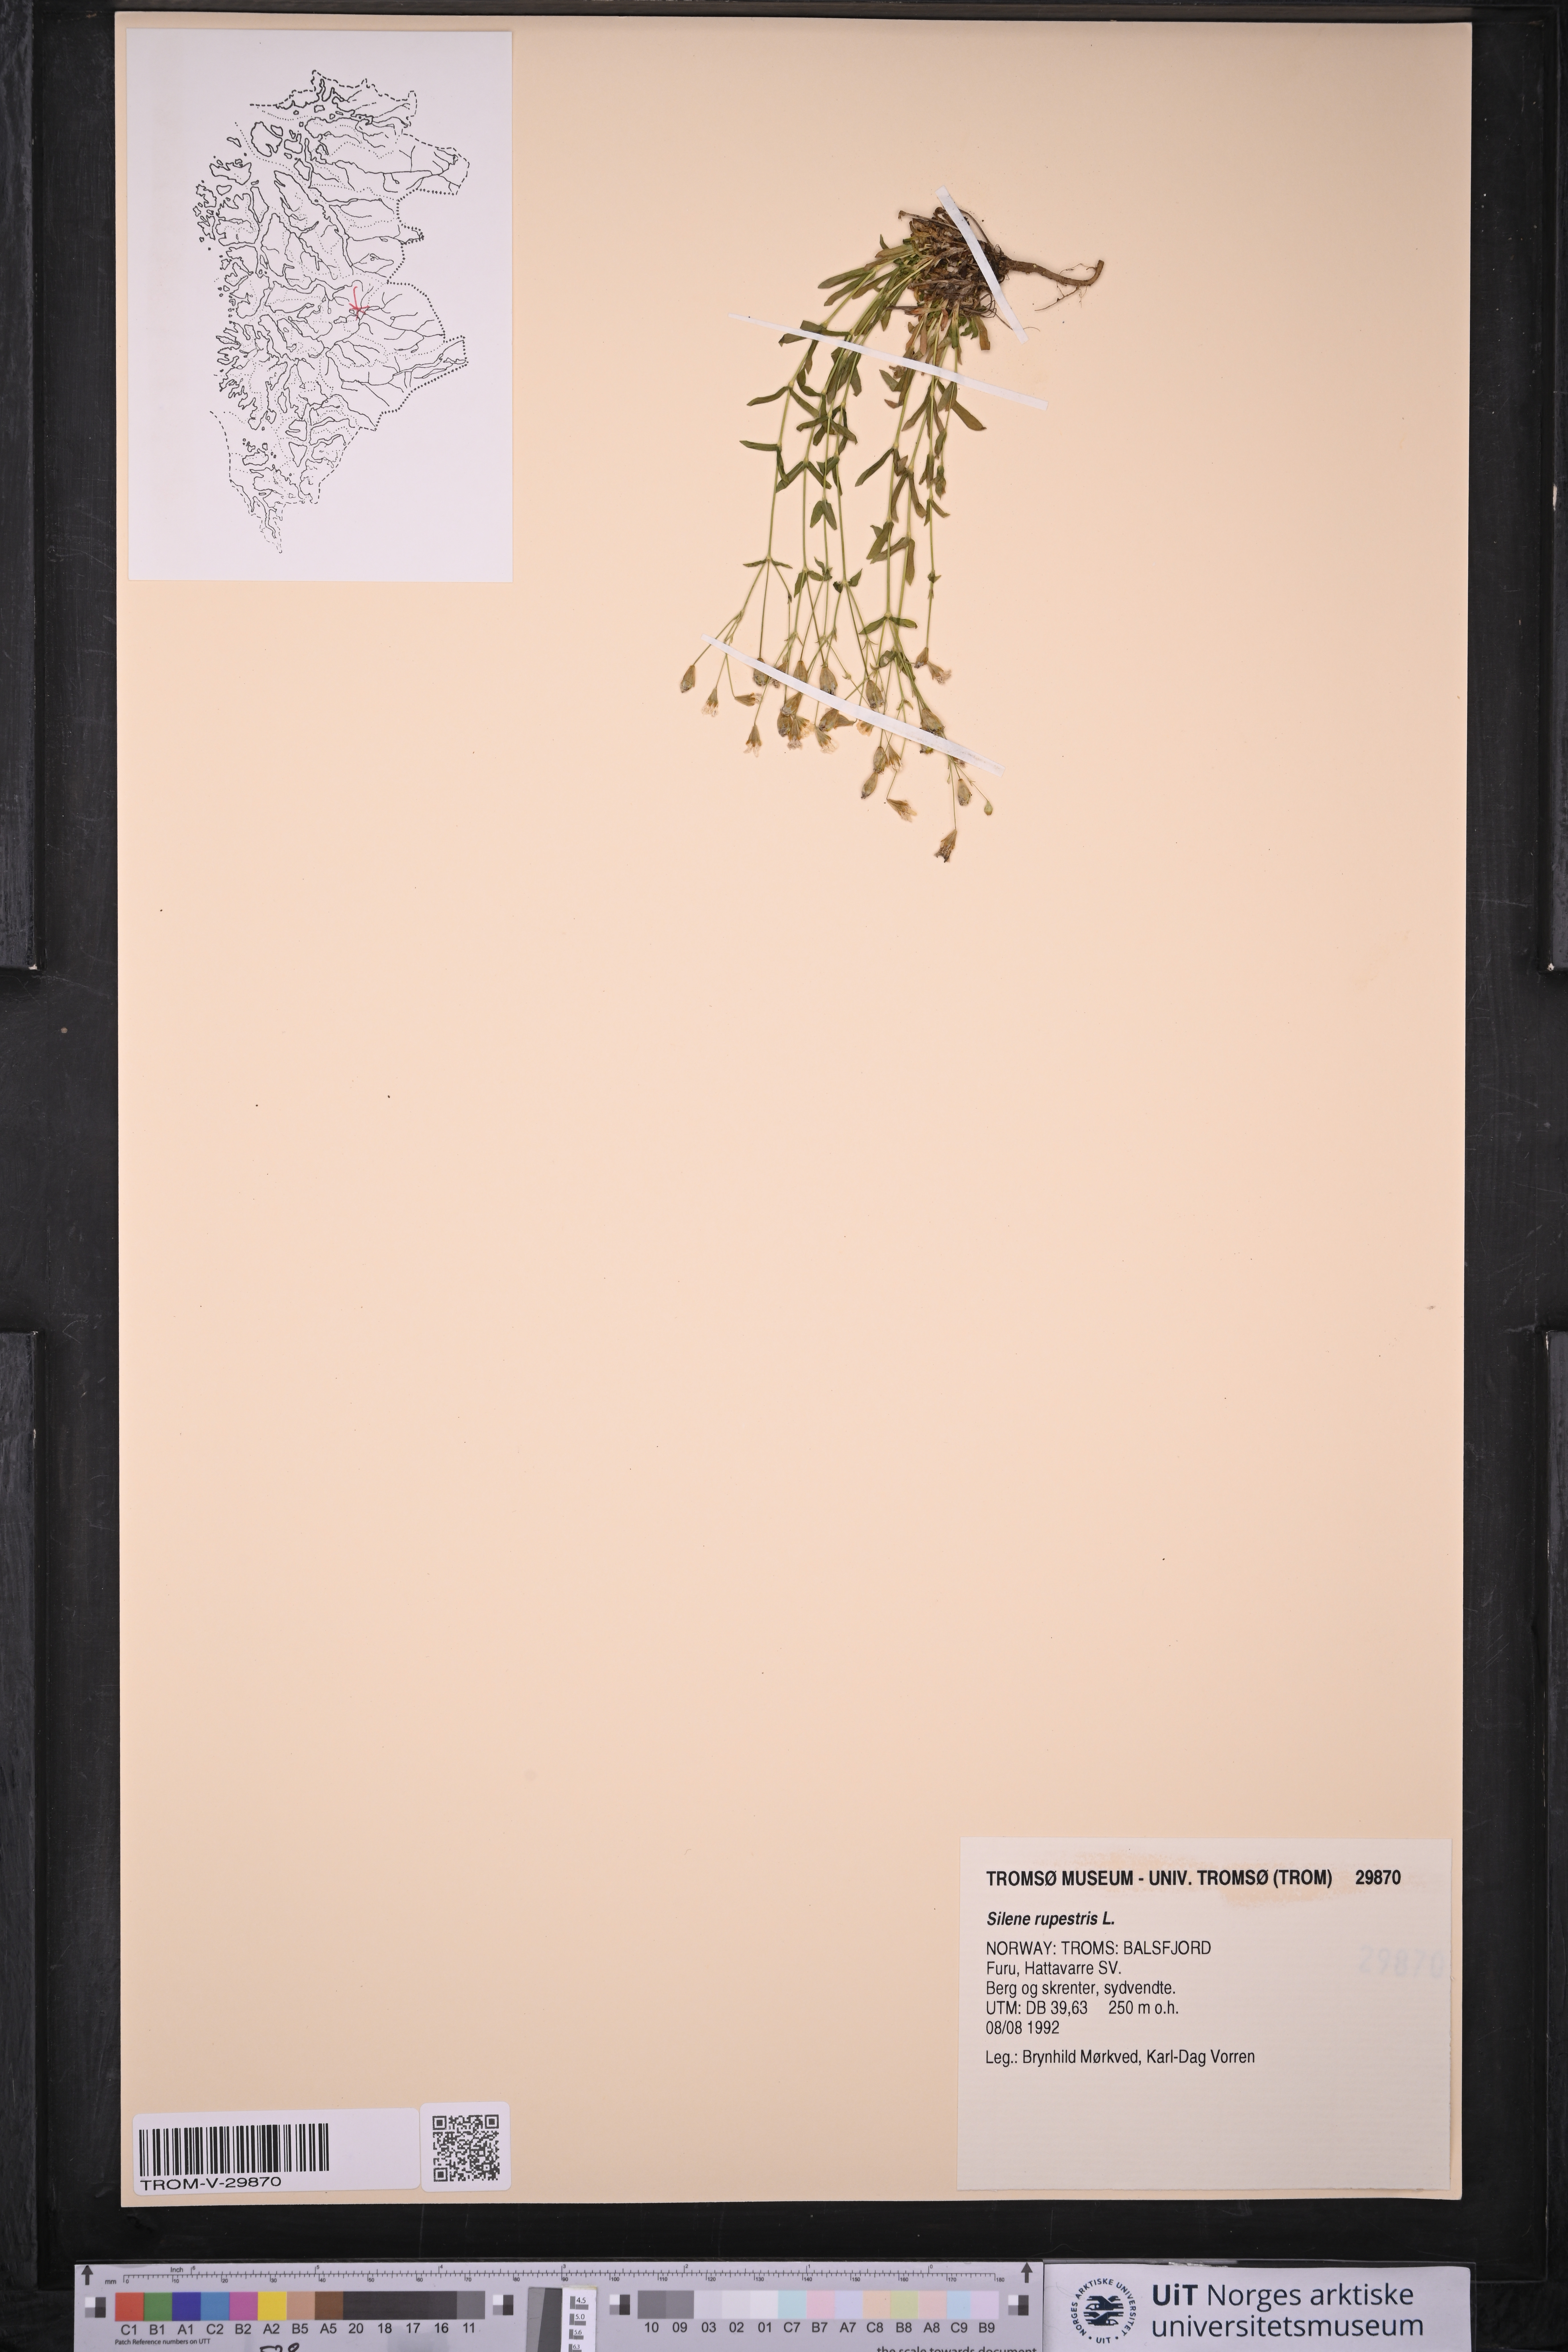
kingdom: Plantae
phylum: Tracheophyta
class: Magnoliopsida
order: Caryophyllales
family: Caryophyllaceae
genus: Atocion
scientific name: Atocion rupestre
